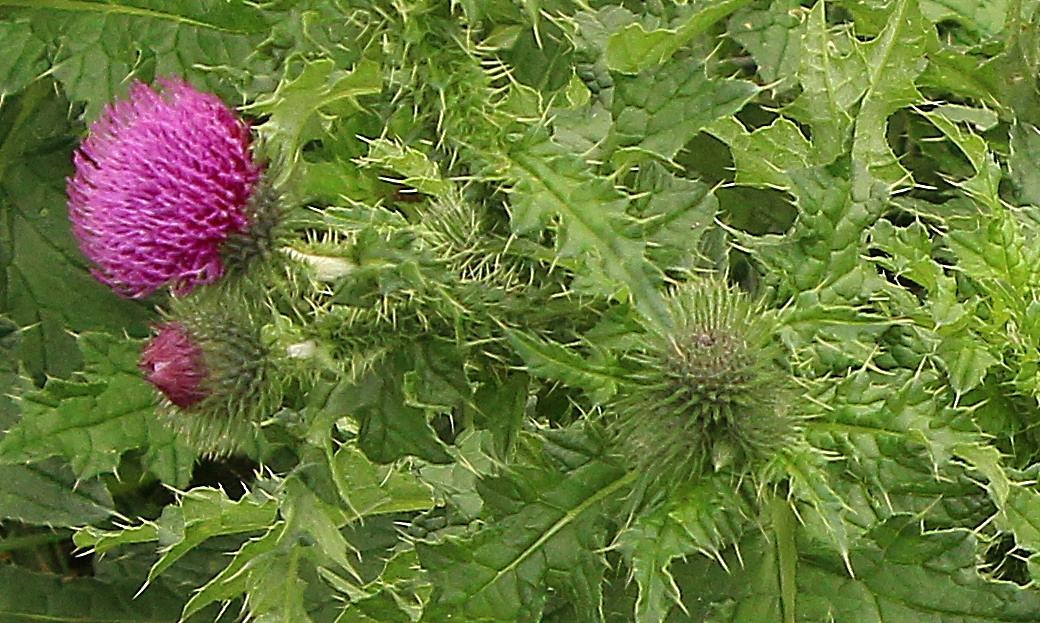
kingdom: Plantae
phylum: Tracheophyta
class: Magnoliopsida
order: Asterales
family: Asteraceae
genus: Carduus
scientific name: Carduus crispus
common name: Kruset tidsel
